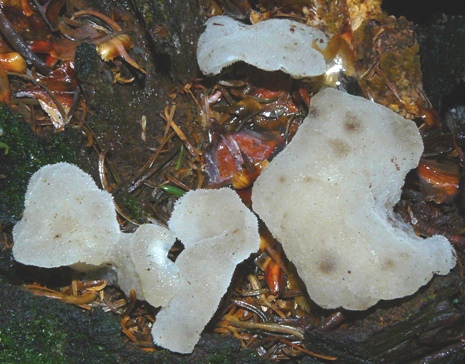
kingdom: Fungi
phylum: Basidiomycota
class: Agaricomycetes
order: Auriculariales
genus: Pseudohydnum
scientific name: Pseudohydnum gelatinosum
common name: bævretand
